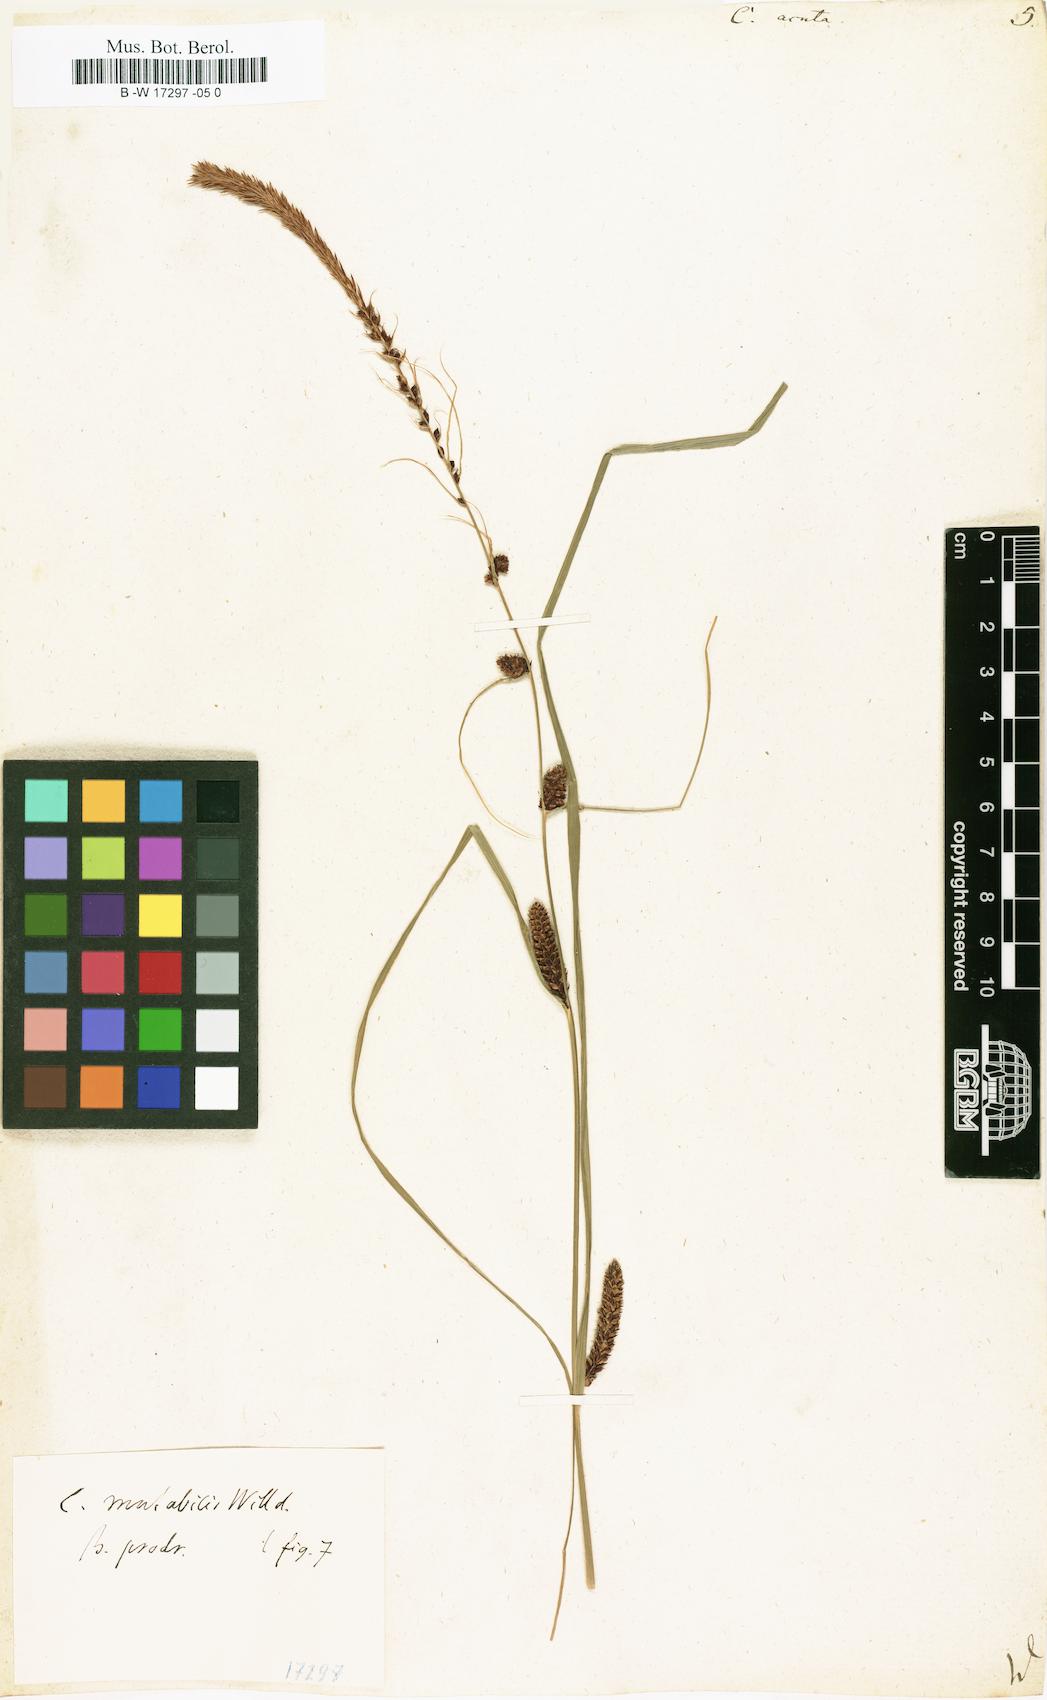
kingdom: Plantae
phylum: Tracheophyta
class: Liliopsida
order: Poales
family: Cyperaceae
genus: Carex
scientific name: Carex acuta
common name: Slender tufted-sedge
